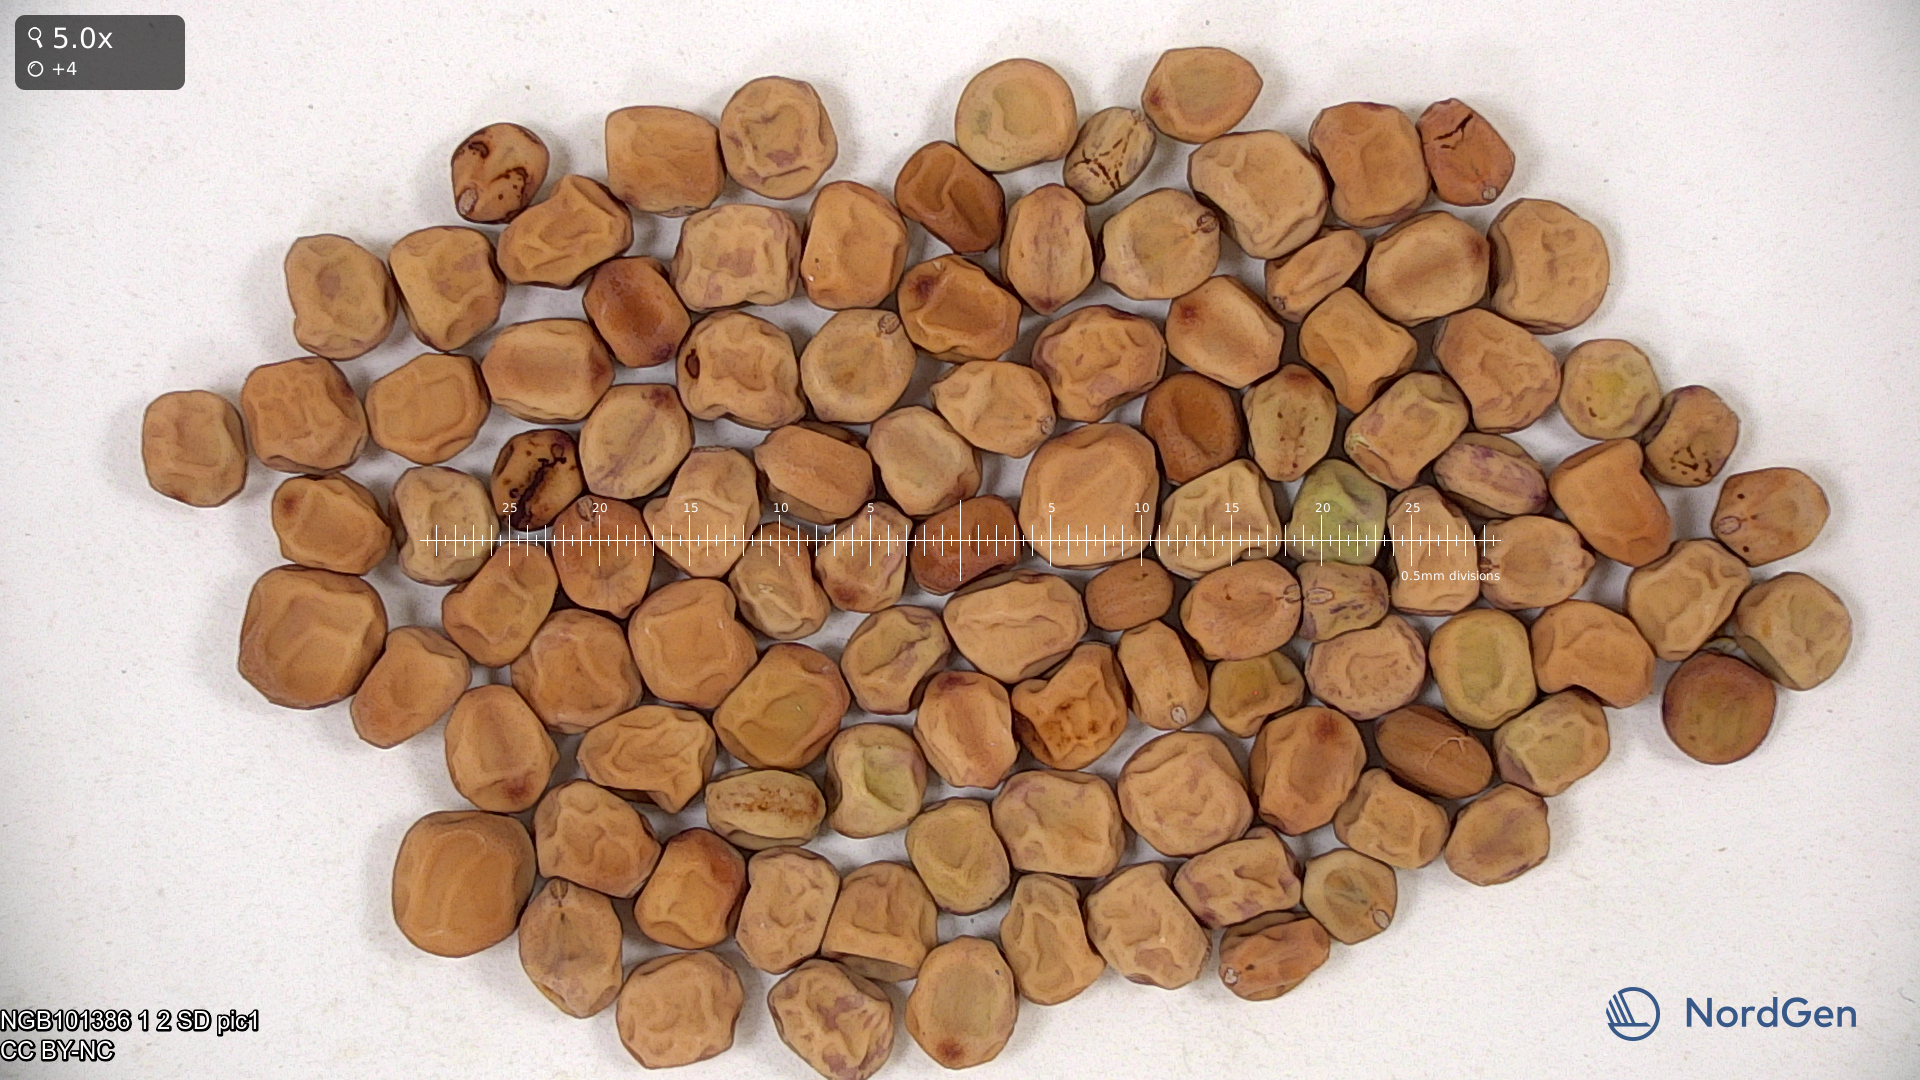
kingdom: Plantae
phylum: Tracheophyta
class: Magnoliopsida
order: Fabales
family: Fabaceae
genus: Lathyrus
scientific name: Lathyrus oleraceus
